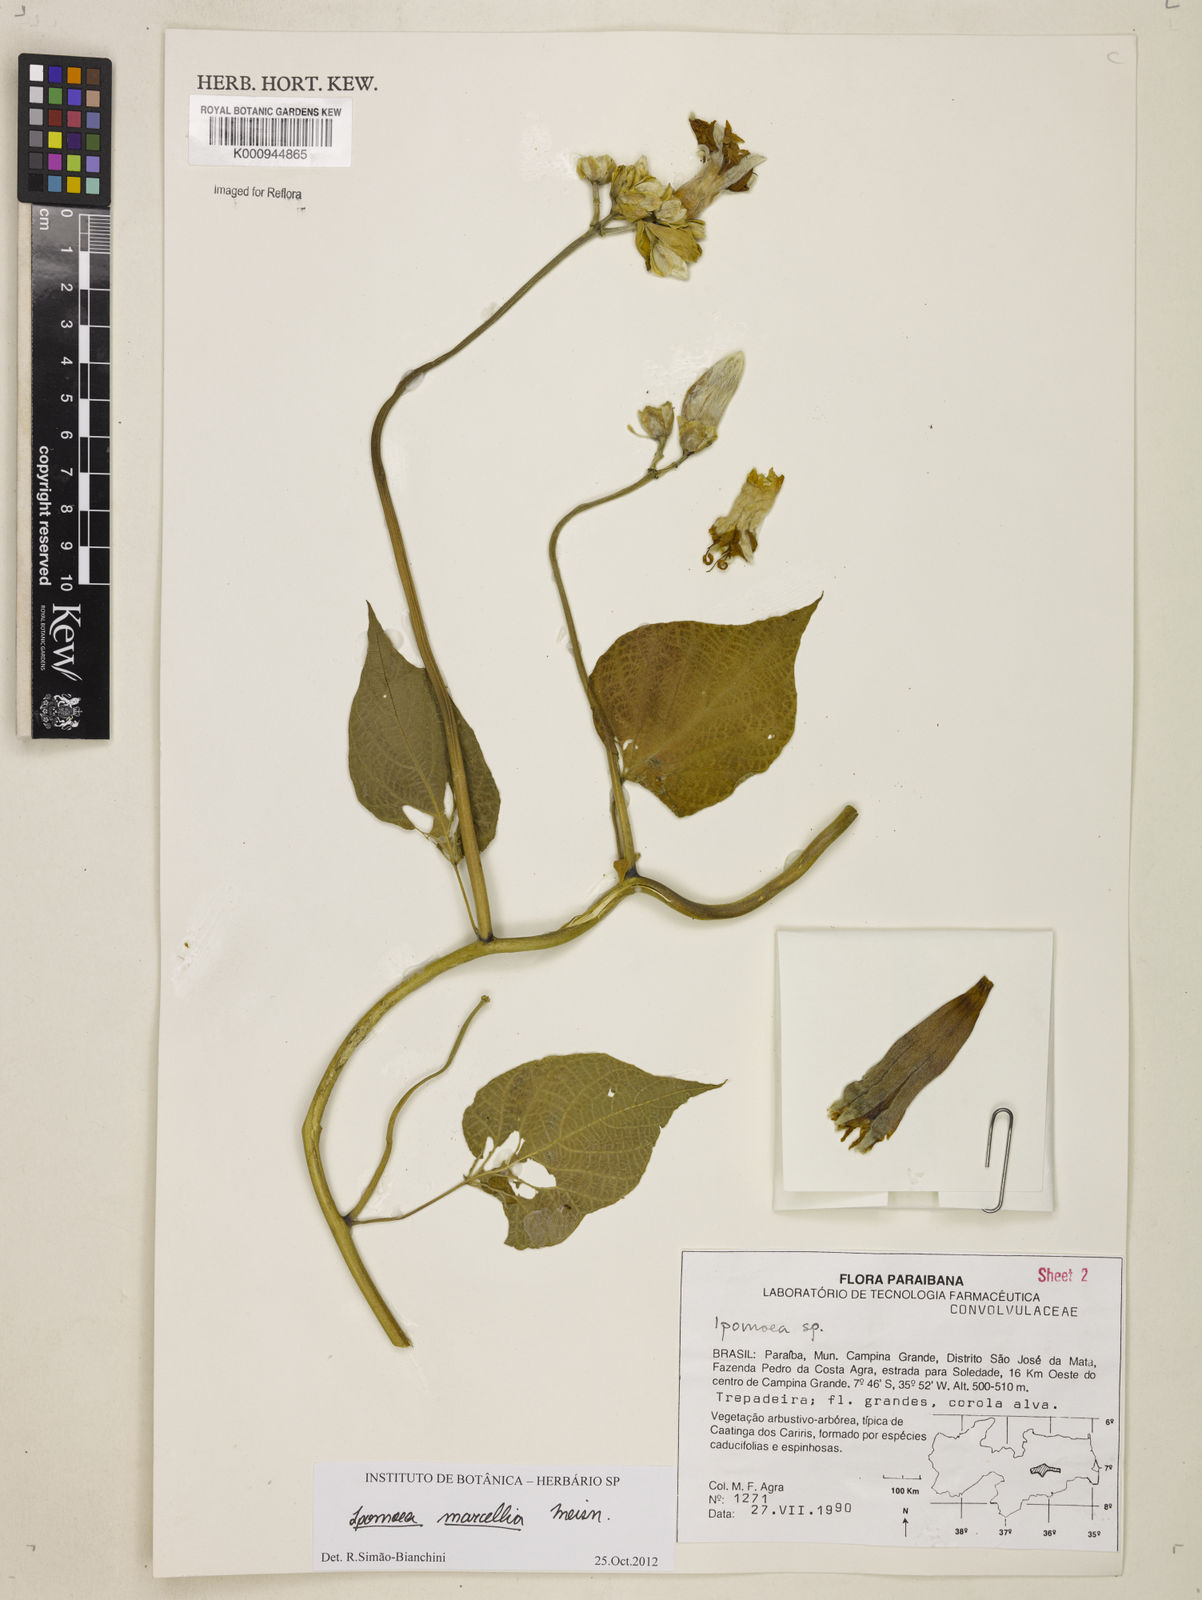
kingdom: Plantae
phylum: Tracheophyta
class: Magnoliopsida
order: Solanales
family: Convolvulaceae
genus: Ipomoea
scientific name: Ipomoea marcellia
